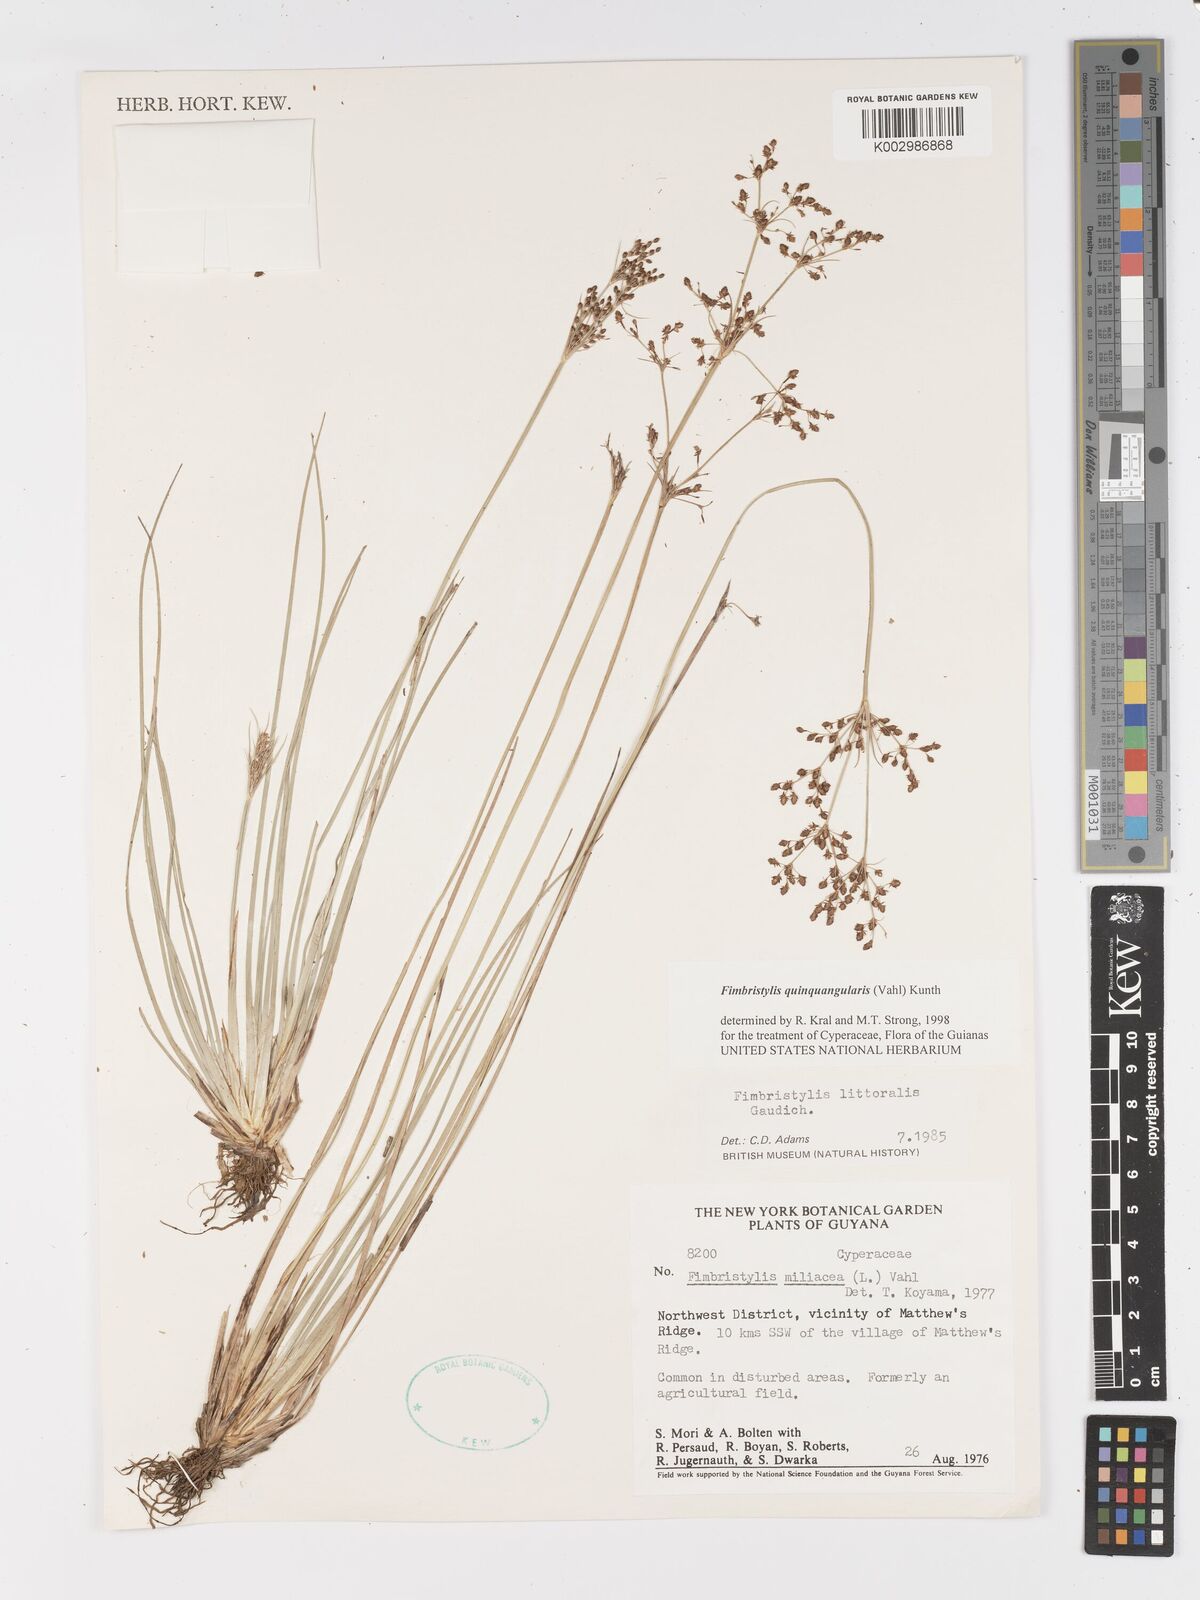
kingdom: Plantae
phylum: Tracheophyta
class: Liliopsida
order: Poales
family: Cyperaceae
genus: Fimbristylis
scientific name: Fimbristylis quinquangularis
